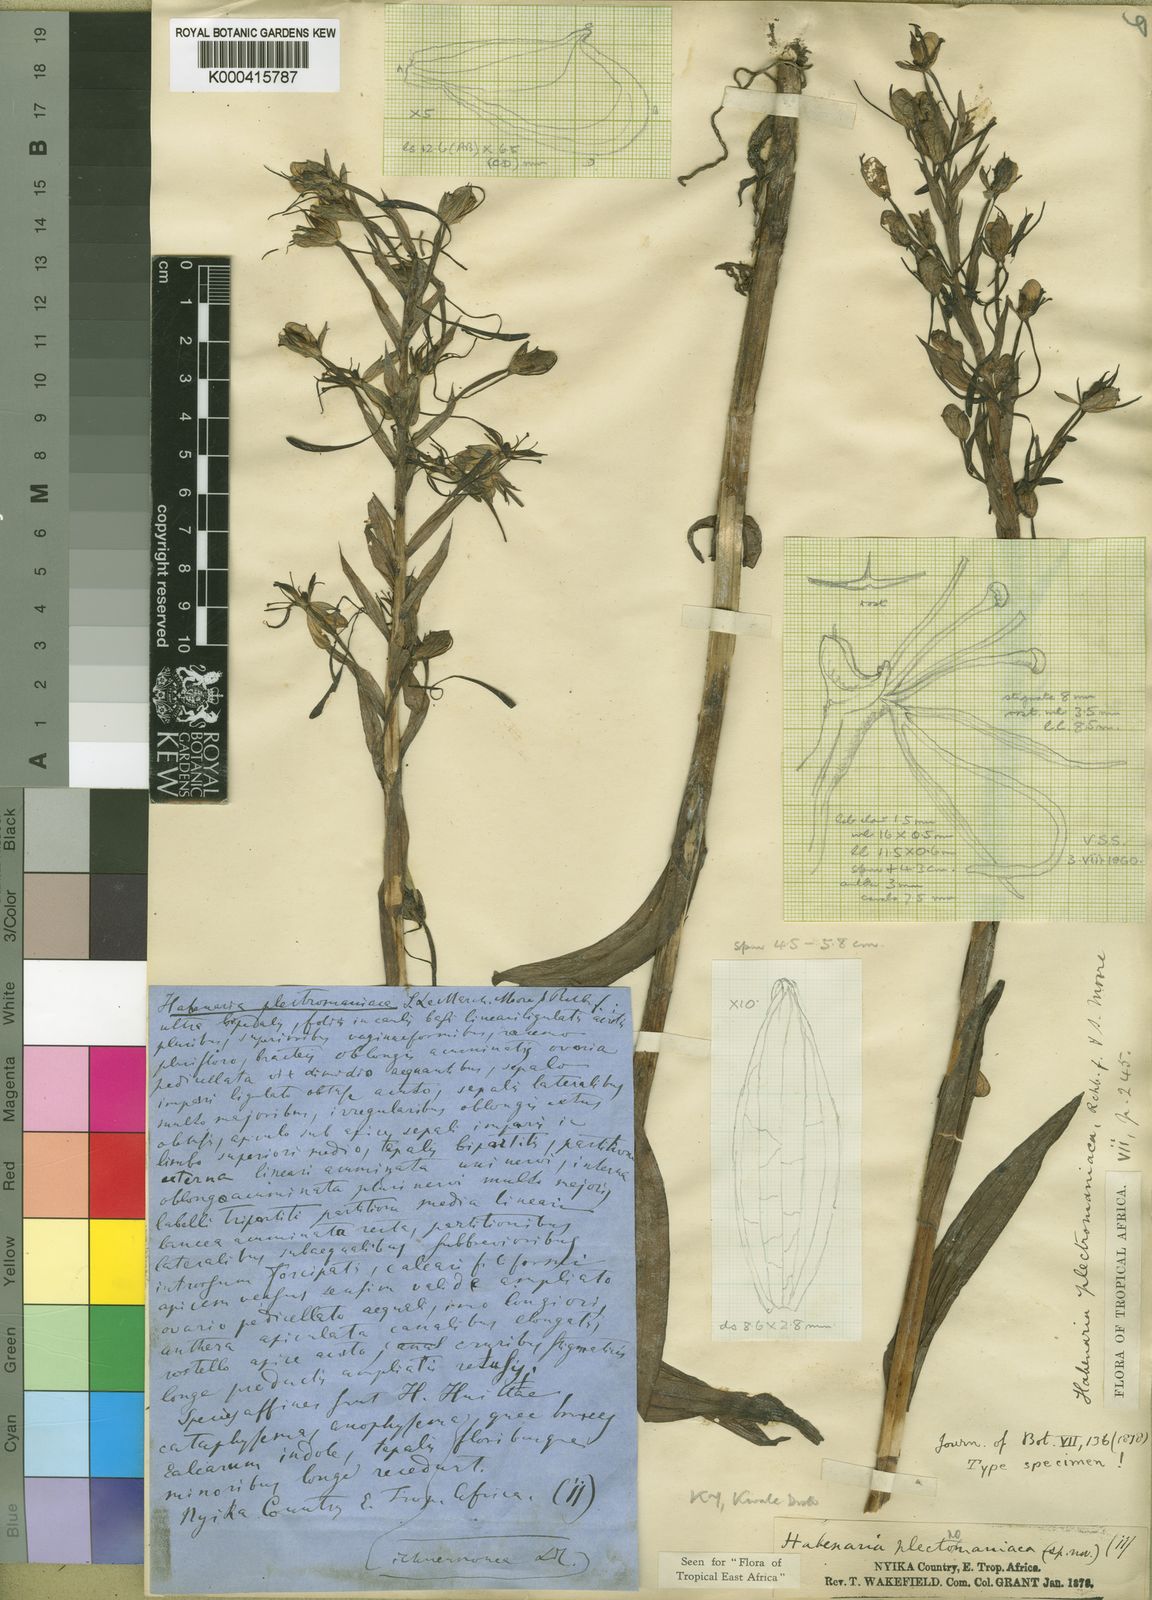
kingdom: Plantae
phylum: Tracheophyta
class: Liliopsida
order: Asparagales
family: Orchidaceae
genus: Habenaria
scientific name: Habenaria plectromaniaca
